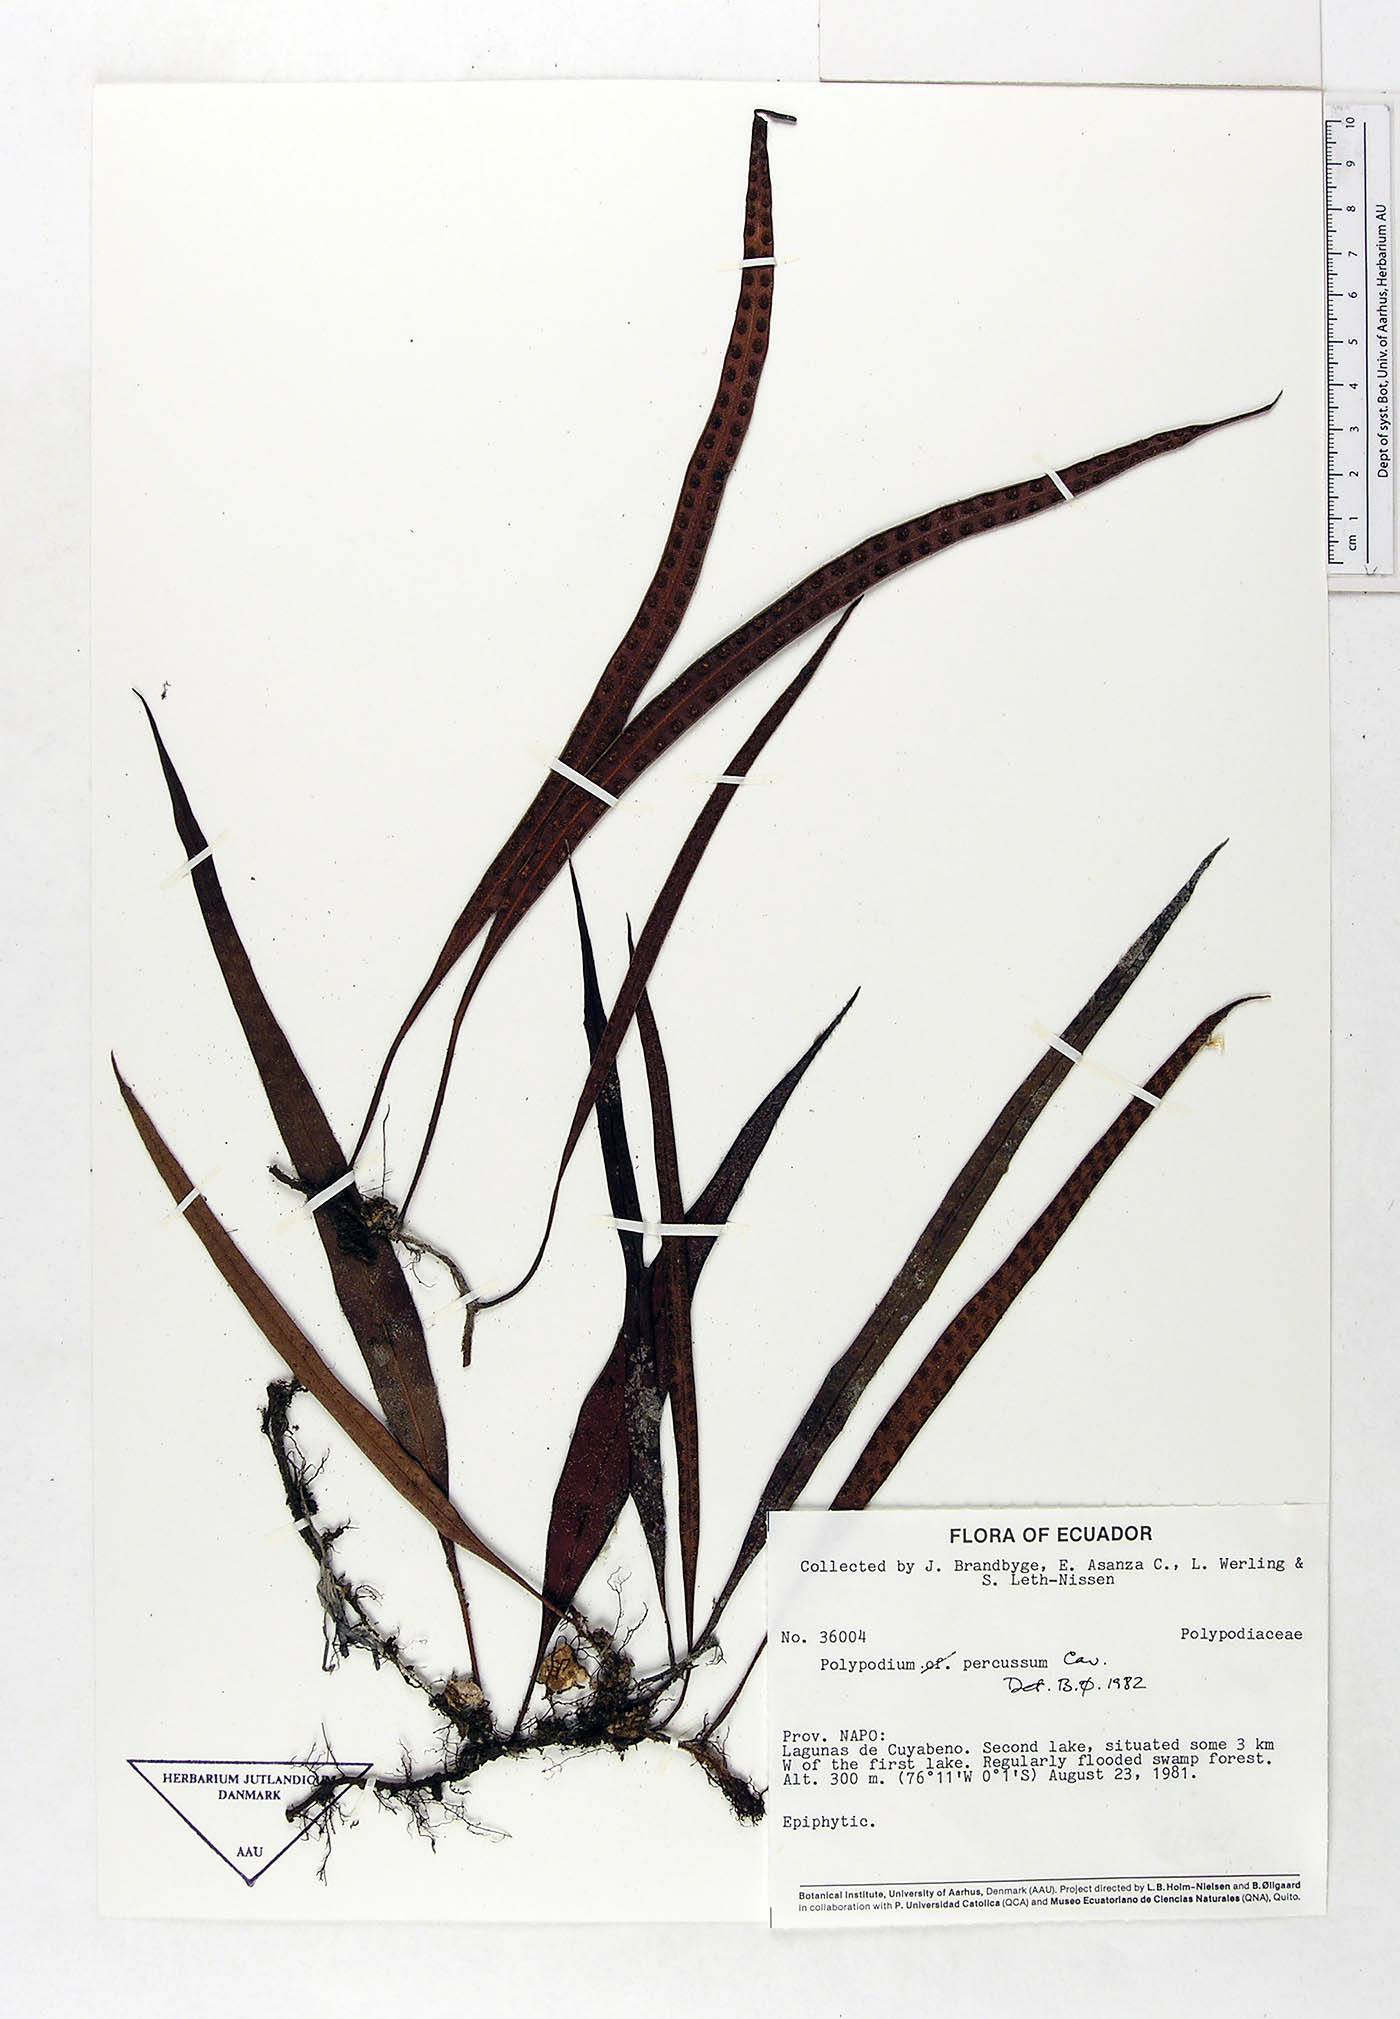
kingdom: Plantae
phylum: Tracheophyta
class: Polypodiopsida
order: Polypodiales
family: Polypodiaceae
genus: Microgramma
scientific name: Microgramma percussa
